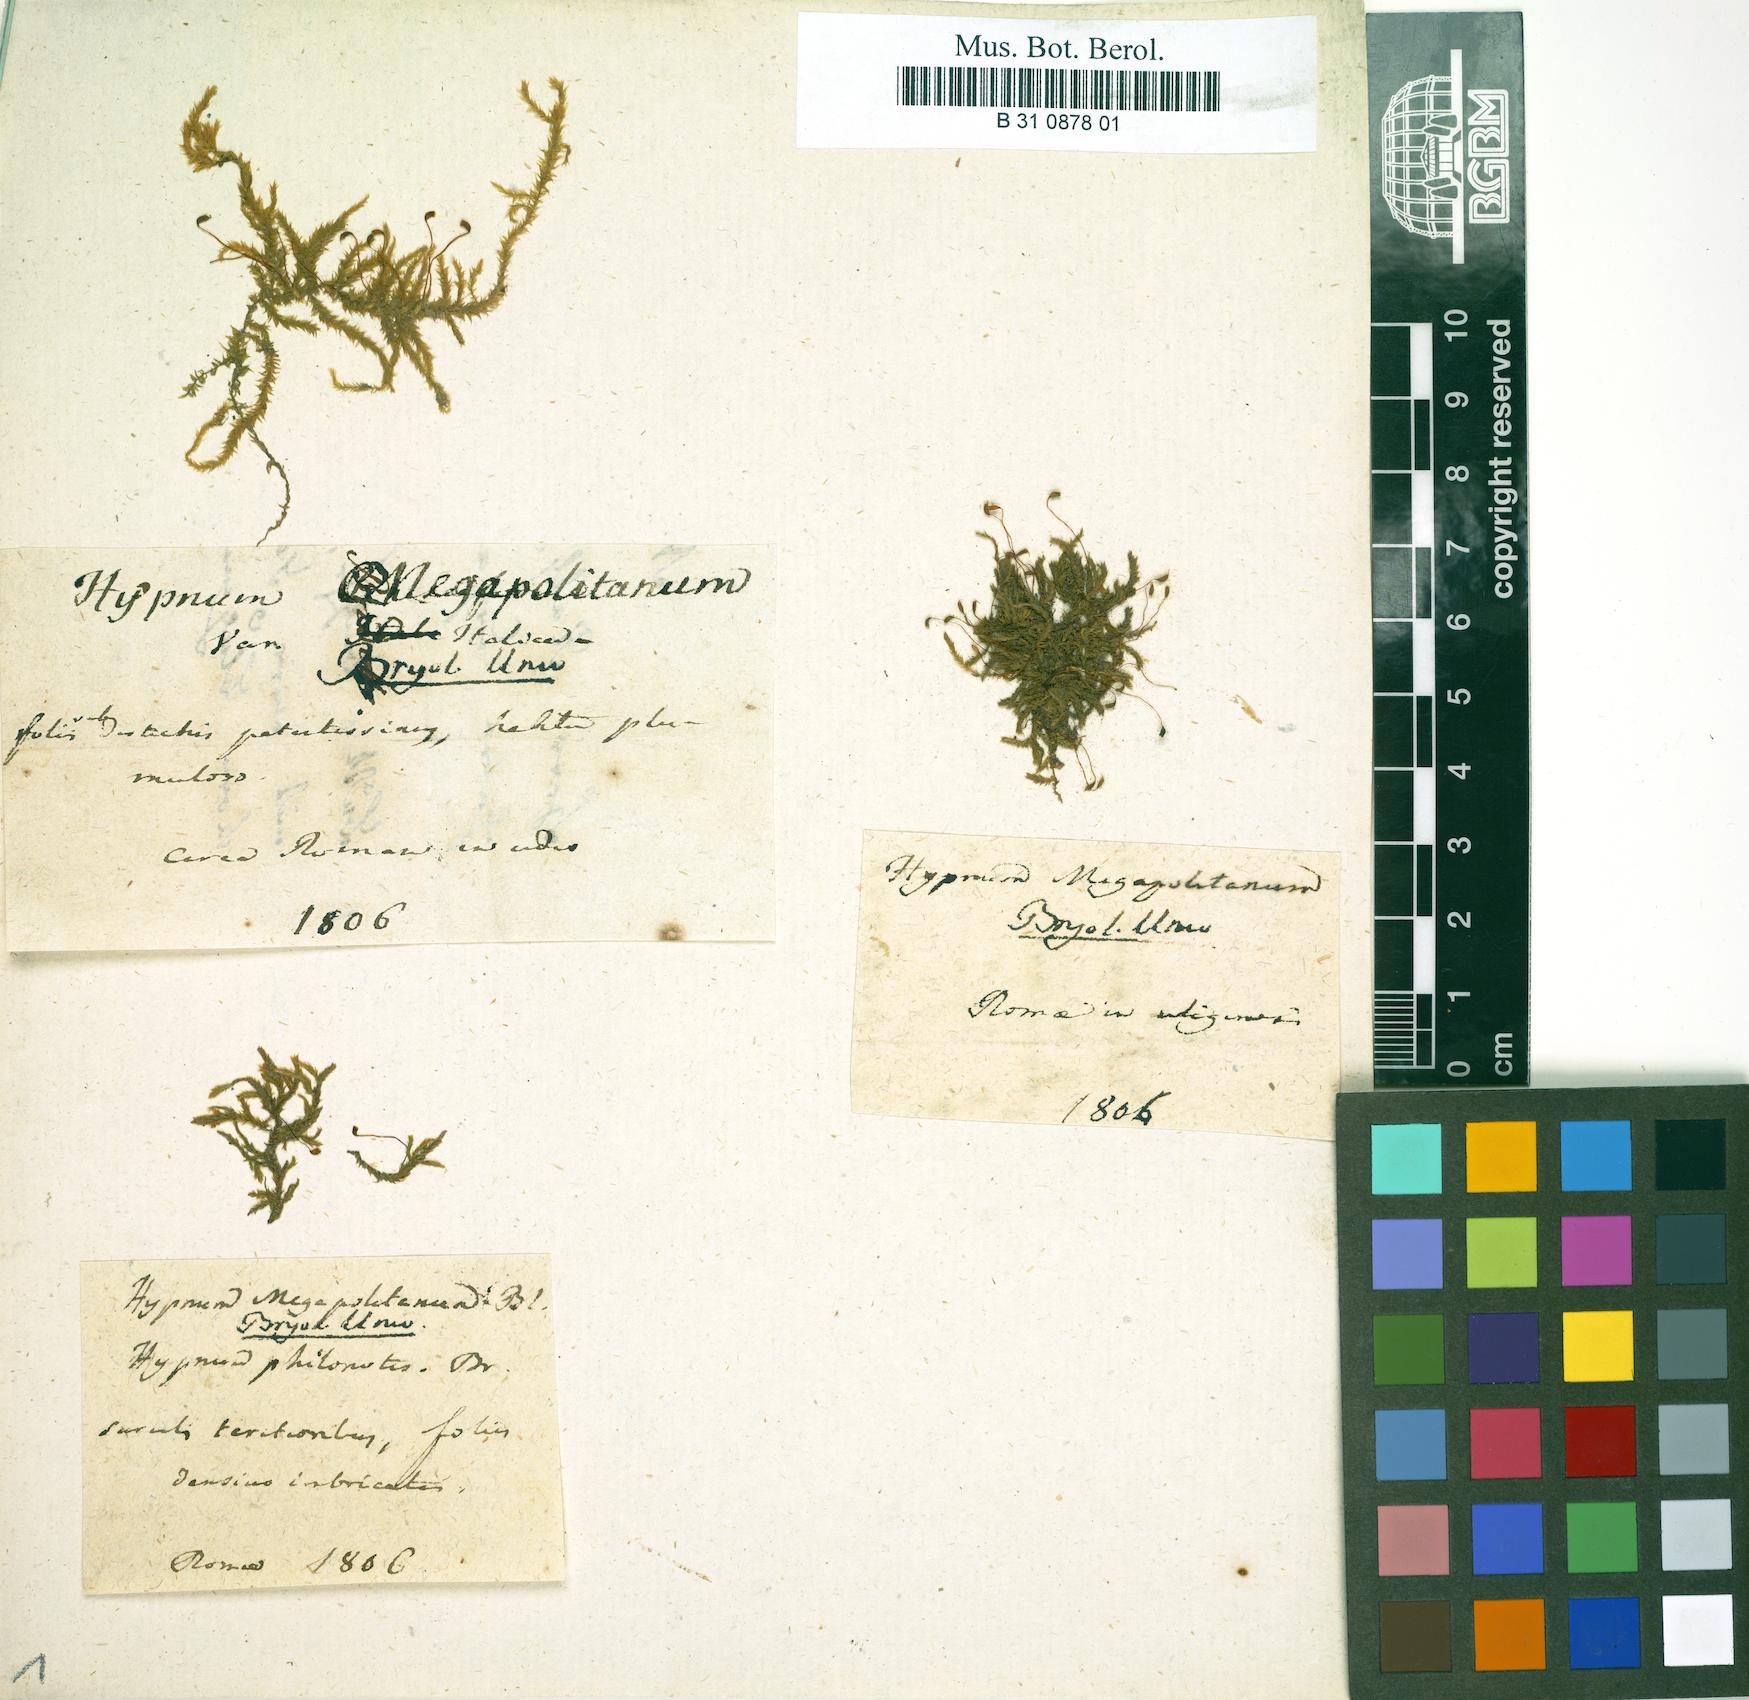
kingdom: Plantae
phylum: Bryophyta
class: Bryopsida
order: Hypnales
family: Brachytheciaceae
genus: Rhynchostegium
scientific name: Rhynchostegium megapolitanum
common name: Megapolitan feather-moss
